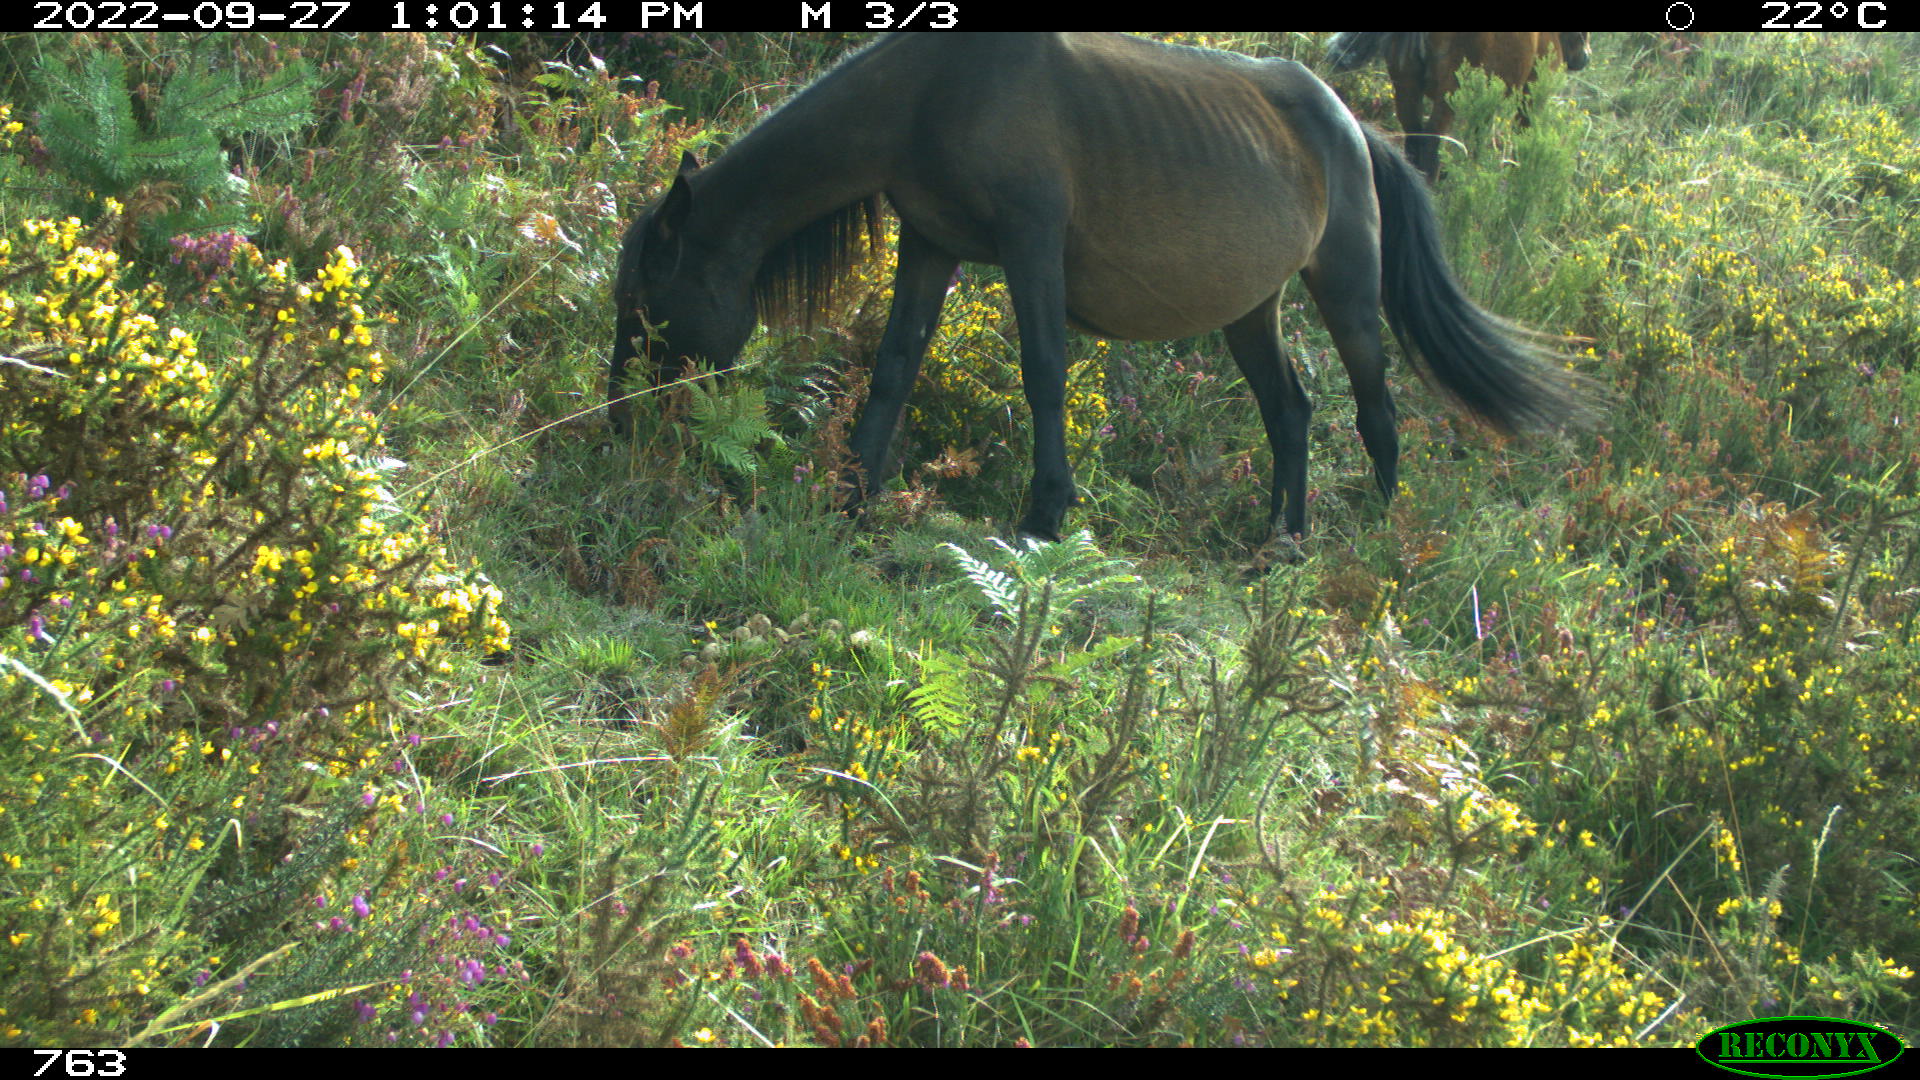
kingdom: Animalia
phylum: Chordata
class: Mammalia
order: Perissodactyla
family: Equidae
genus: Equus
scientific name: Equus caballus
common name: Horse
